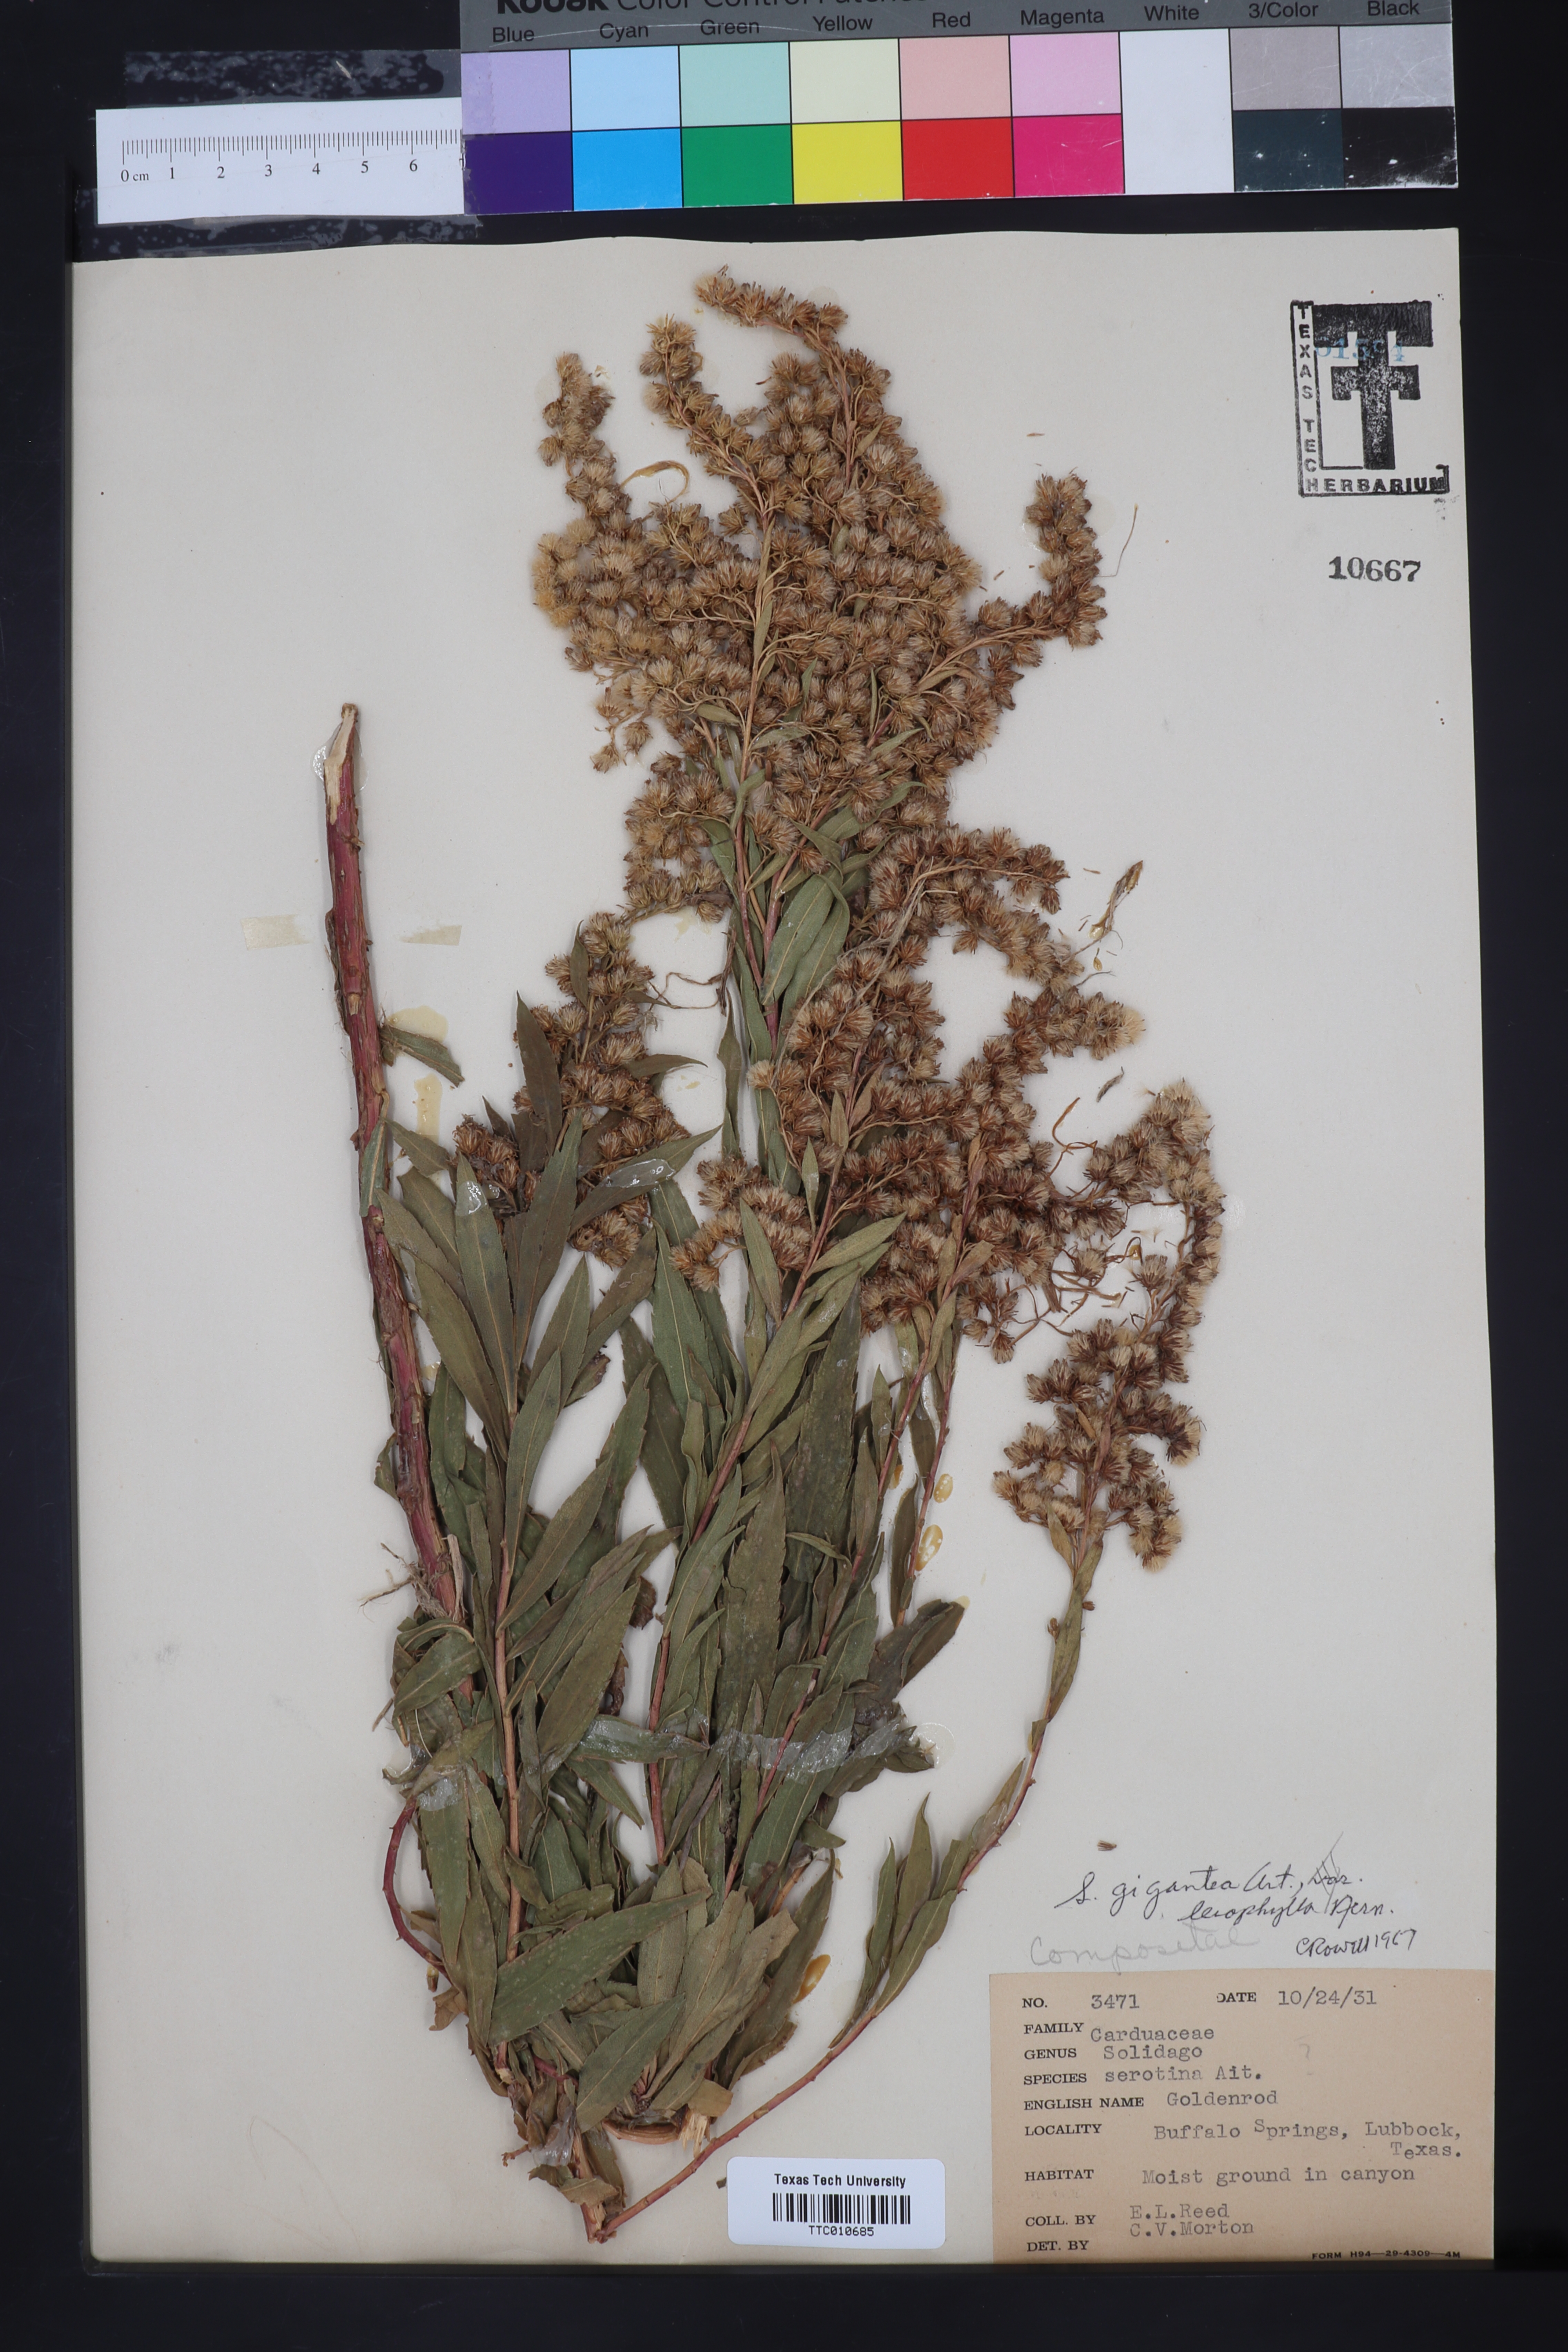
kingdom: Plantae
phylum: Tracheophyta
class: Magnoliopsida
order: Asterales
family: Asteraceae
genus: Solidago
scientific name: Solidago gigantea
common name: Giant goldenrod
